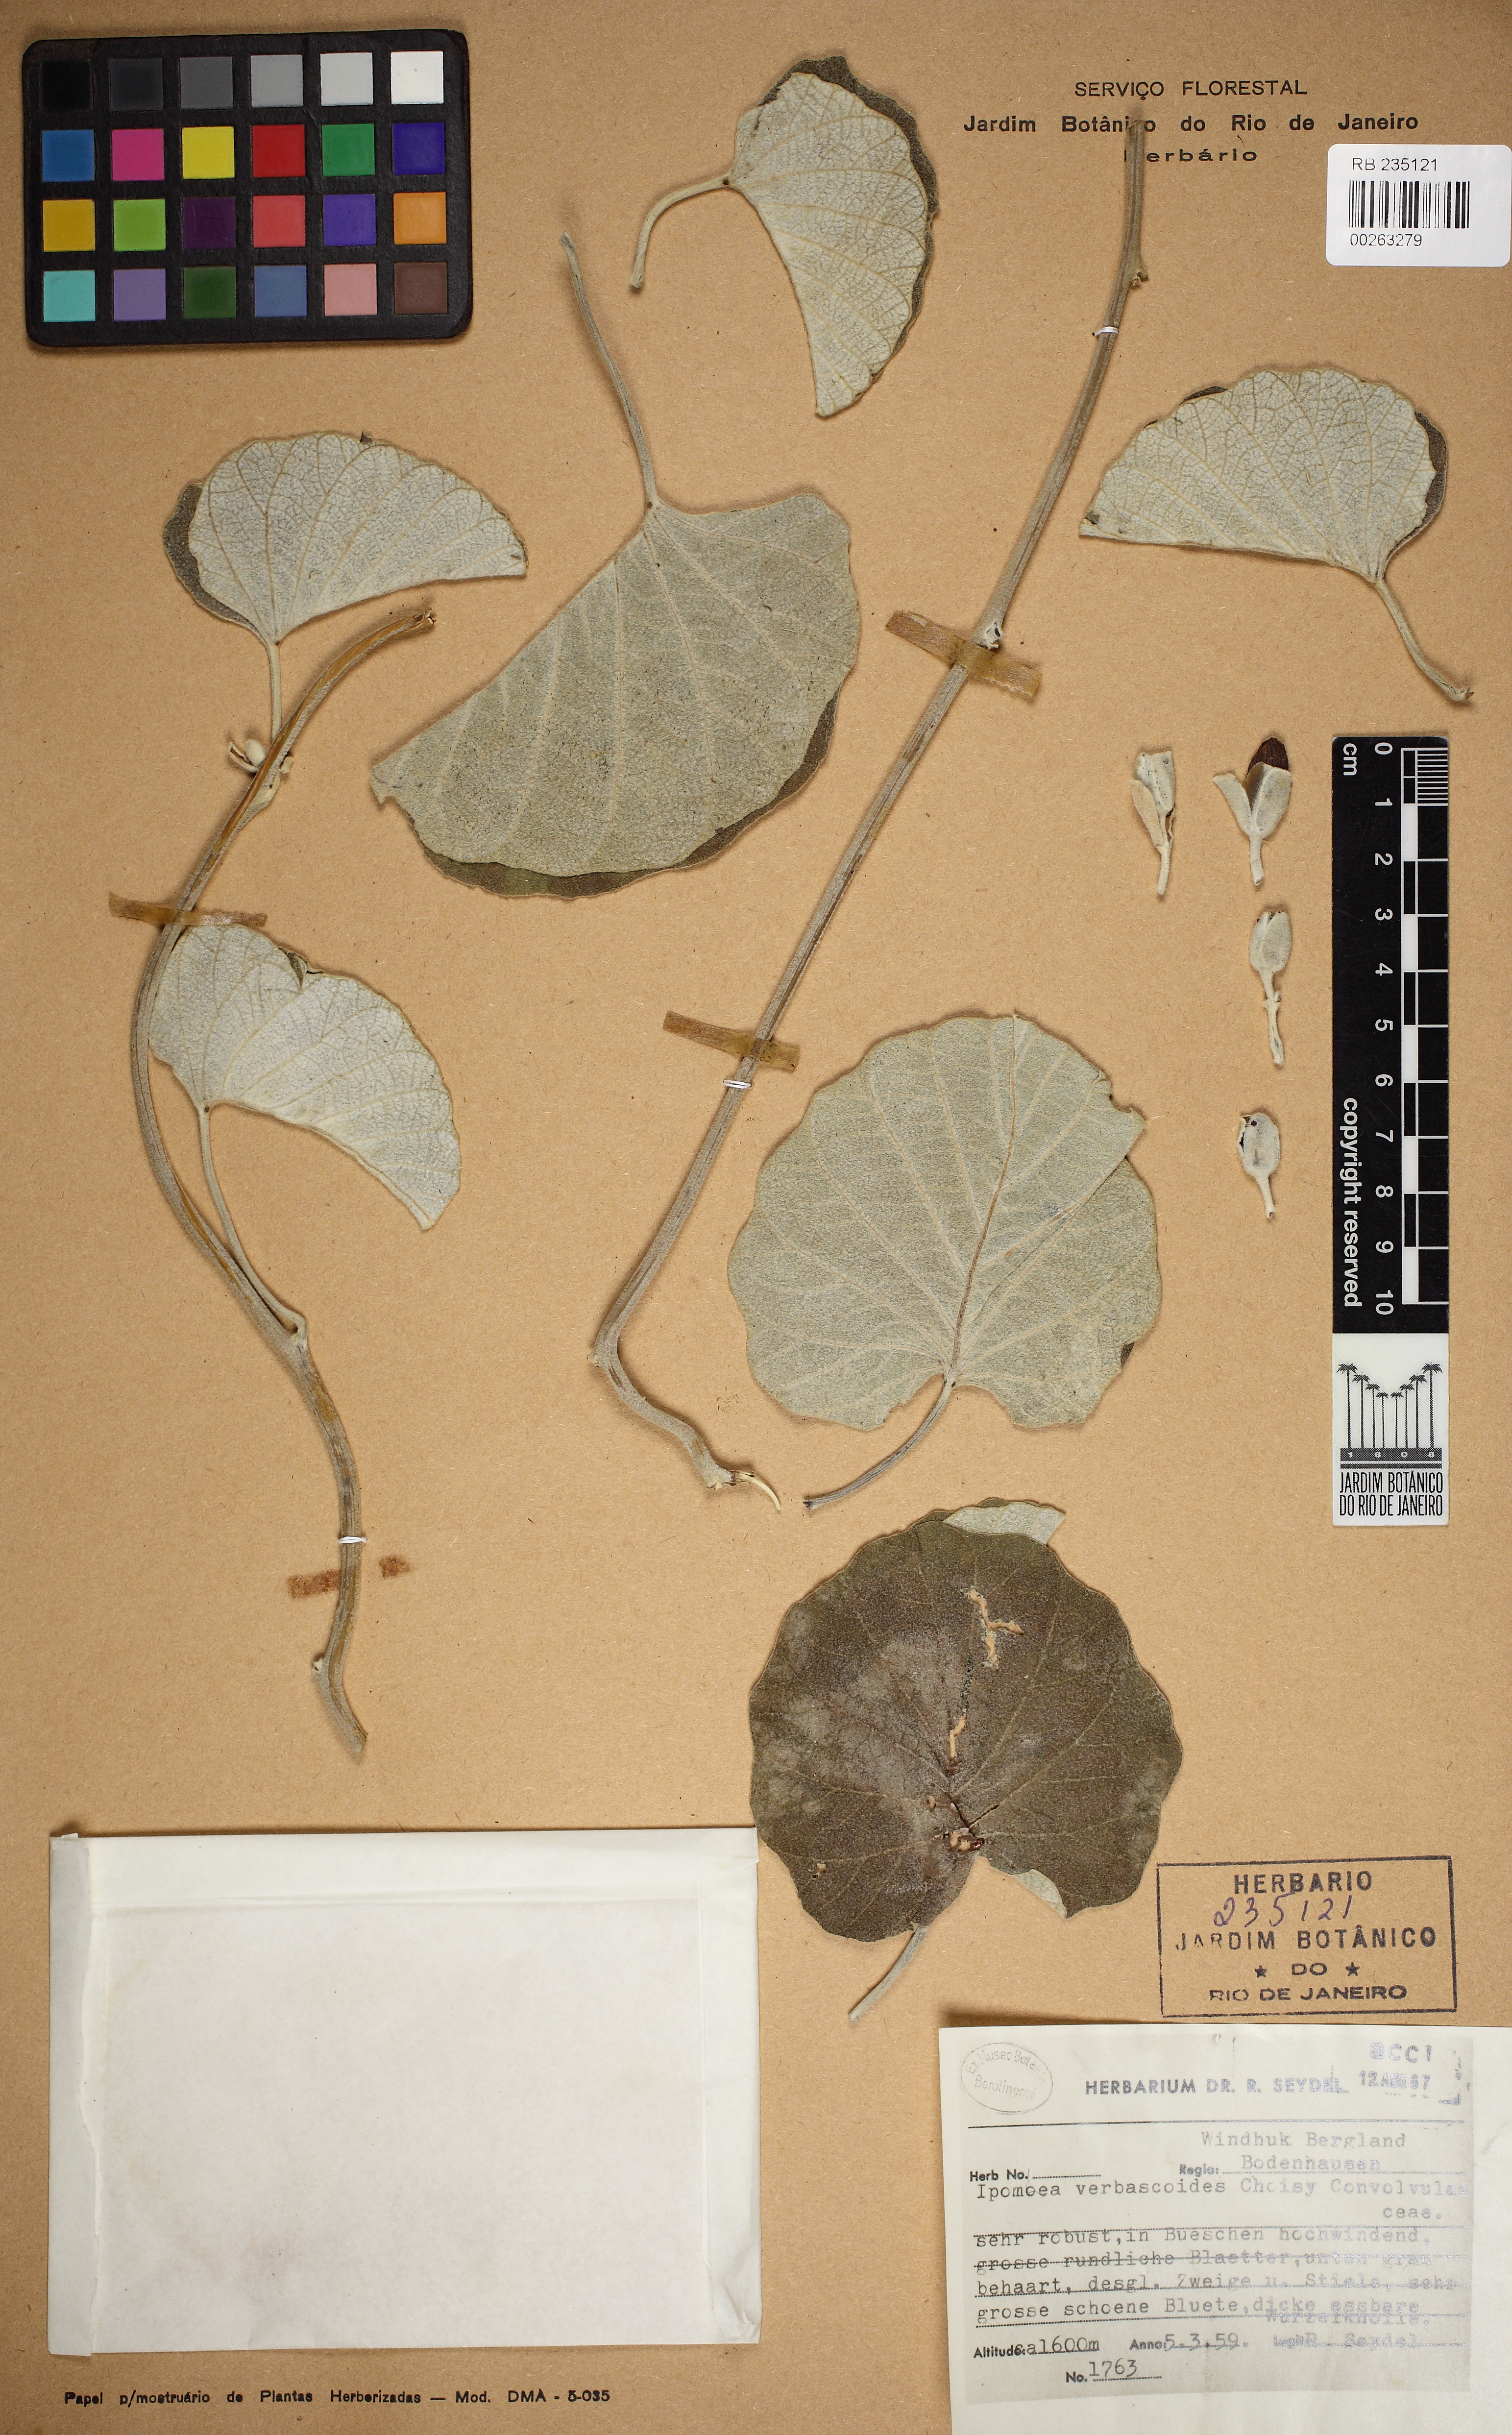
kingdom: Plantae
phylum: Tracheophyta
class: Magnoliopsida
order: Solanales
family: Convolvulaceae
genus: Ipomoea
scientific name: Ipomoea verbascoidea
